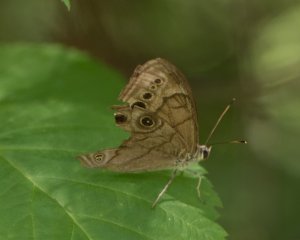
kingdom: Animalia
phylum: Arthropoda
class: Insecta
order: Lepidoptera
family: Nymphalidae
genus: Lethe
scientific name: Lethe anthedon
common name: Northern Pearly-Eye
